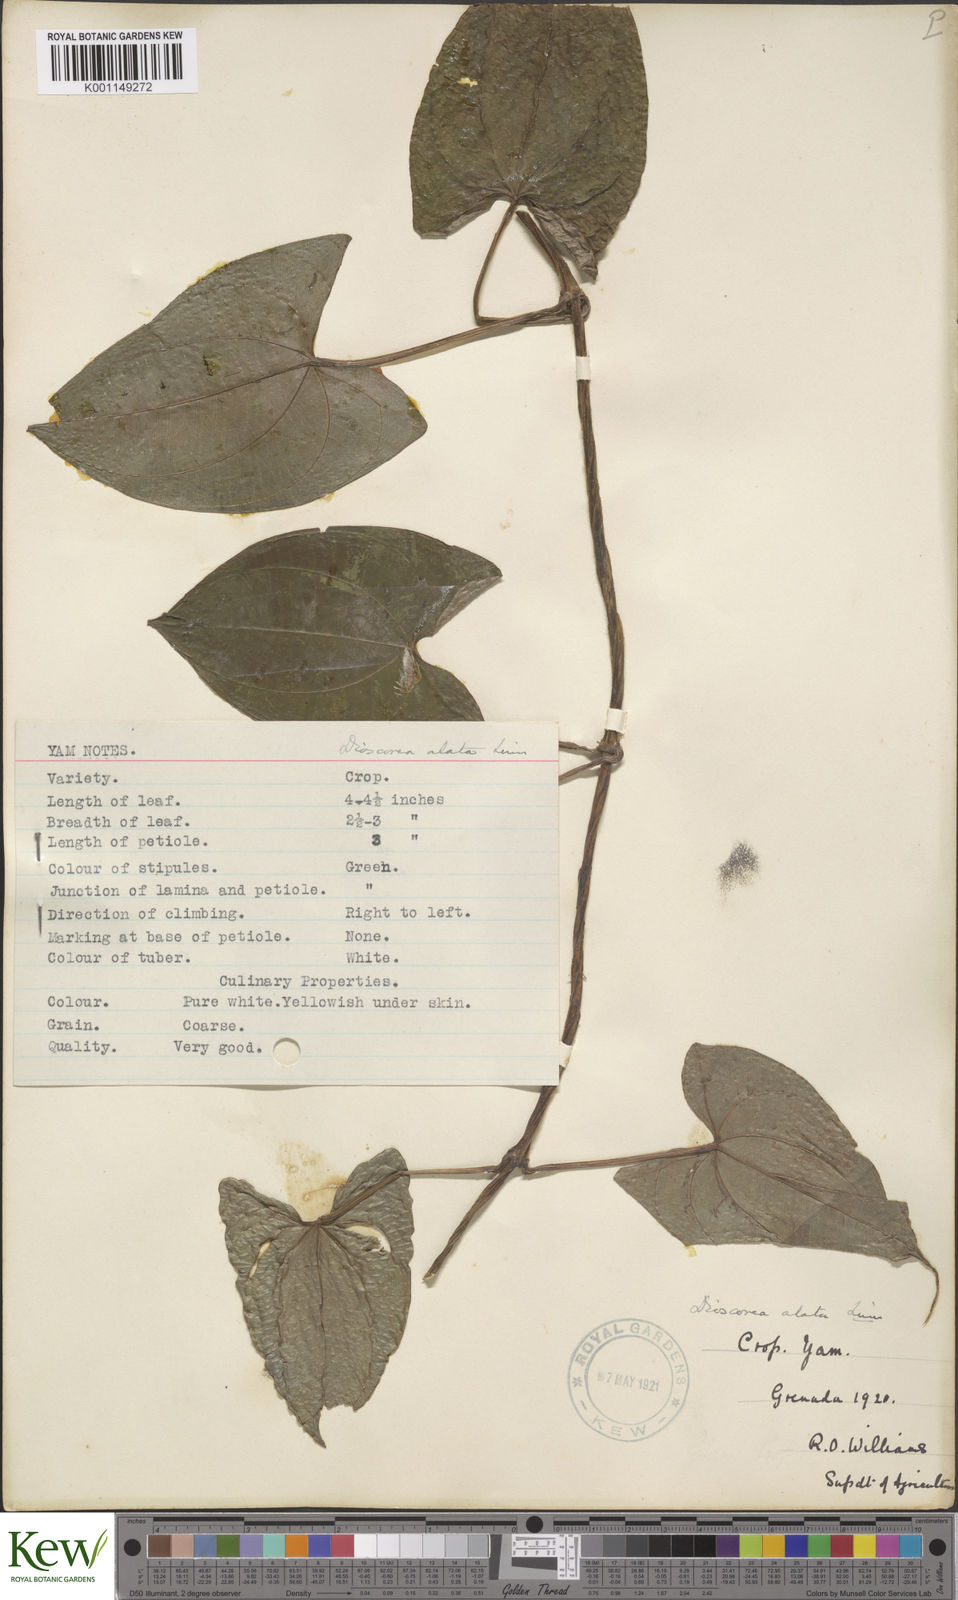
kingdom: Plantae
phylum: Tracheophyta
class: Liliopsida
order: Dioscoreales
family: Dioscoreaceae
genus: Dioscorea
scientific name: Dioscorea alata
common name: Water yam
